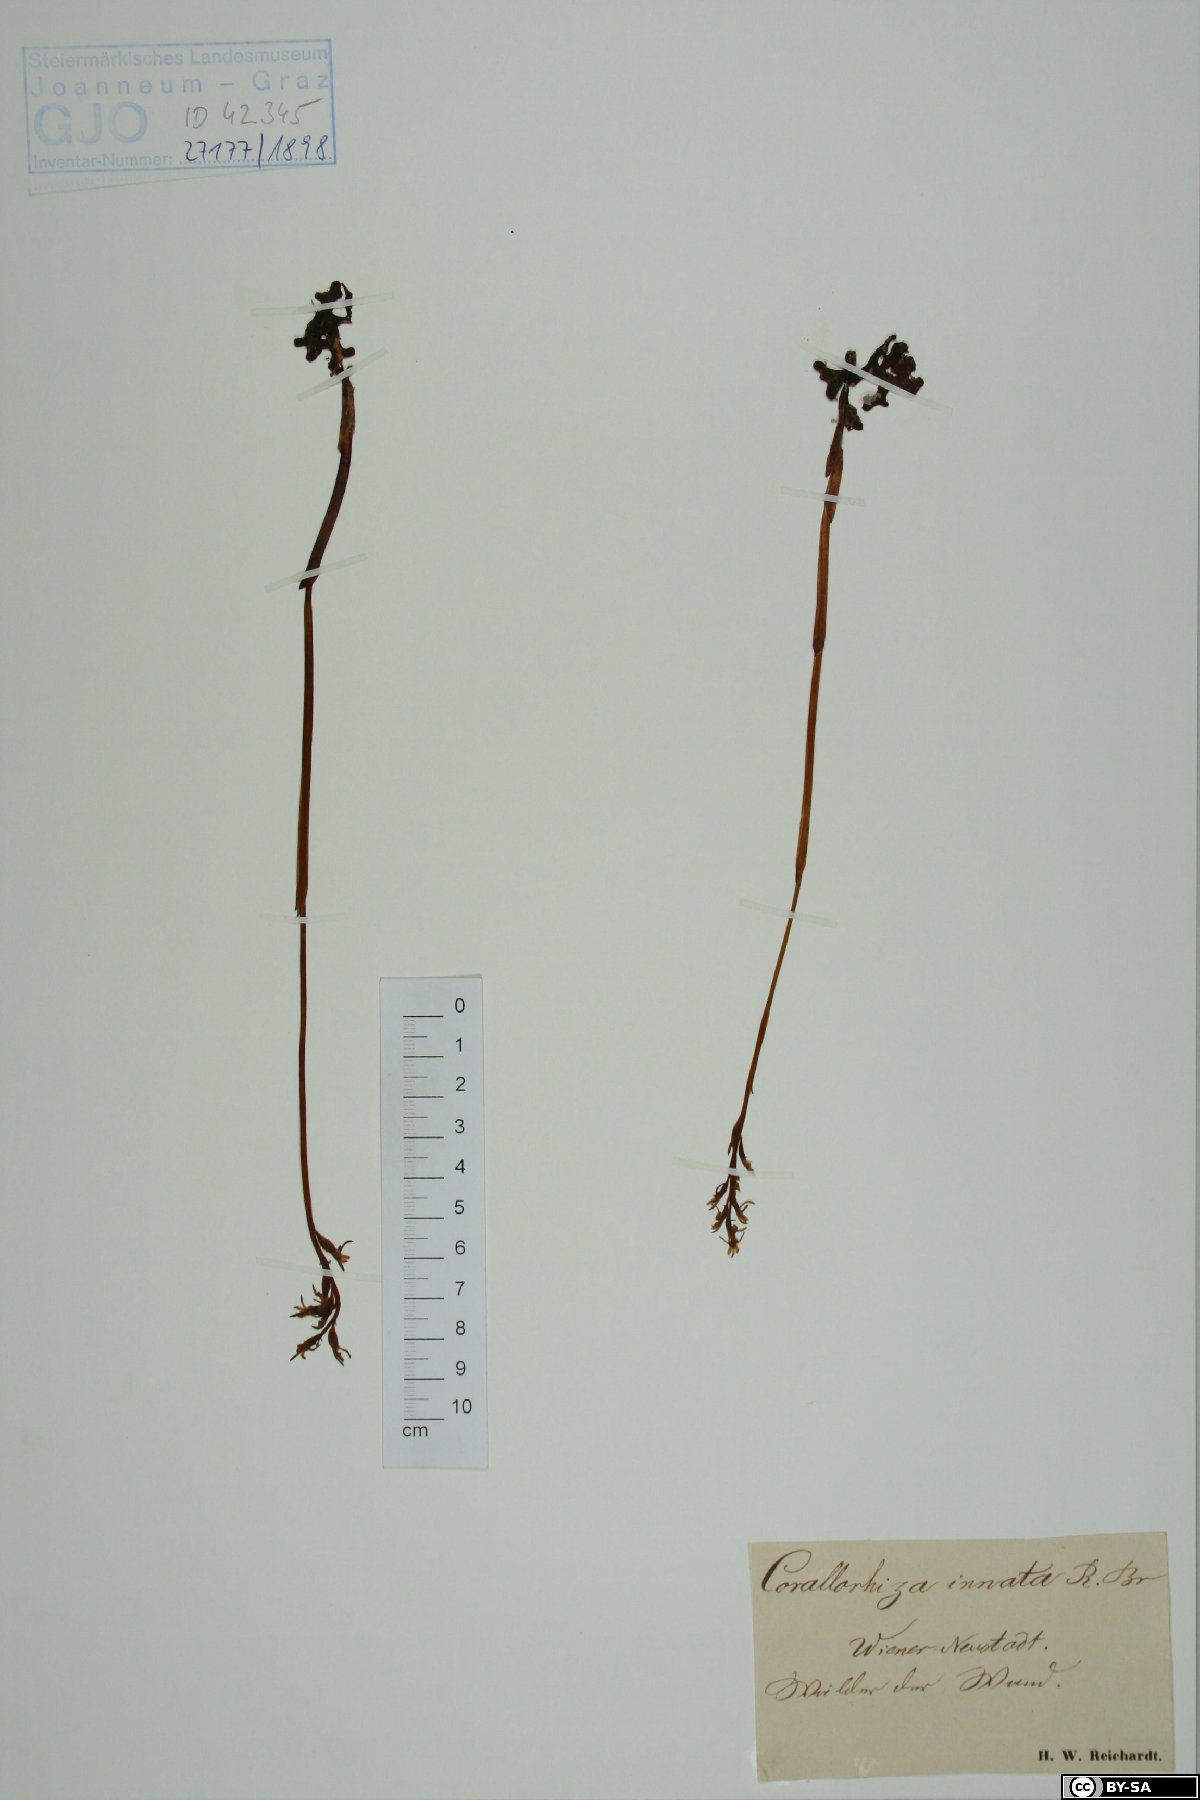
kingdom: Plantae
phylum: Tracheophyta
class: Liliopsida
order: Asparagales
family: Orchidaceae
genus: Corallorhiza
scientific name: Corallorhiza trifida
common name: Yellow coralroot
